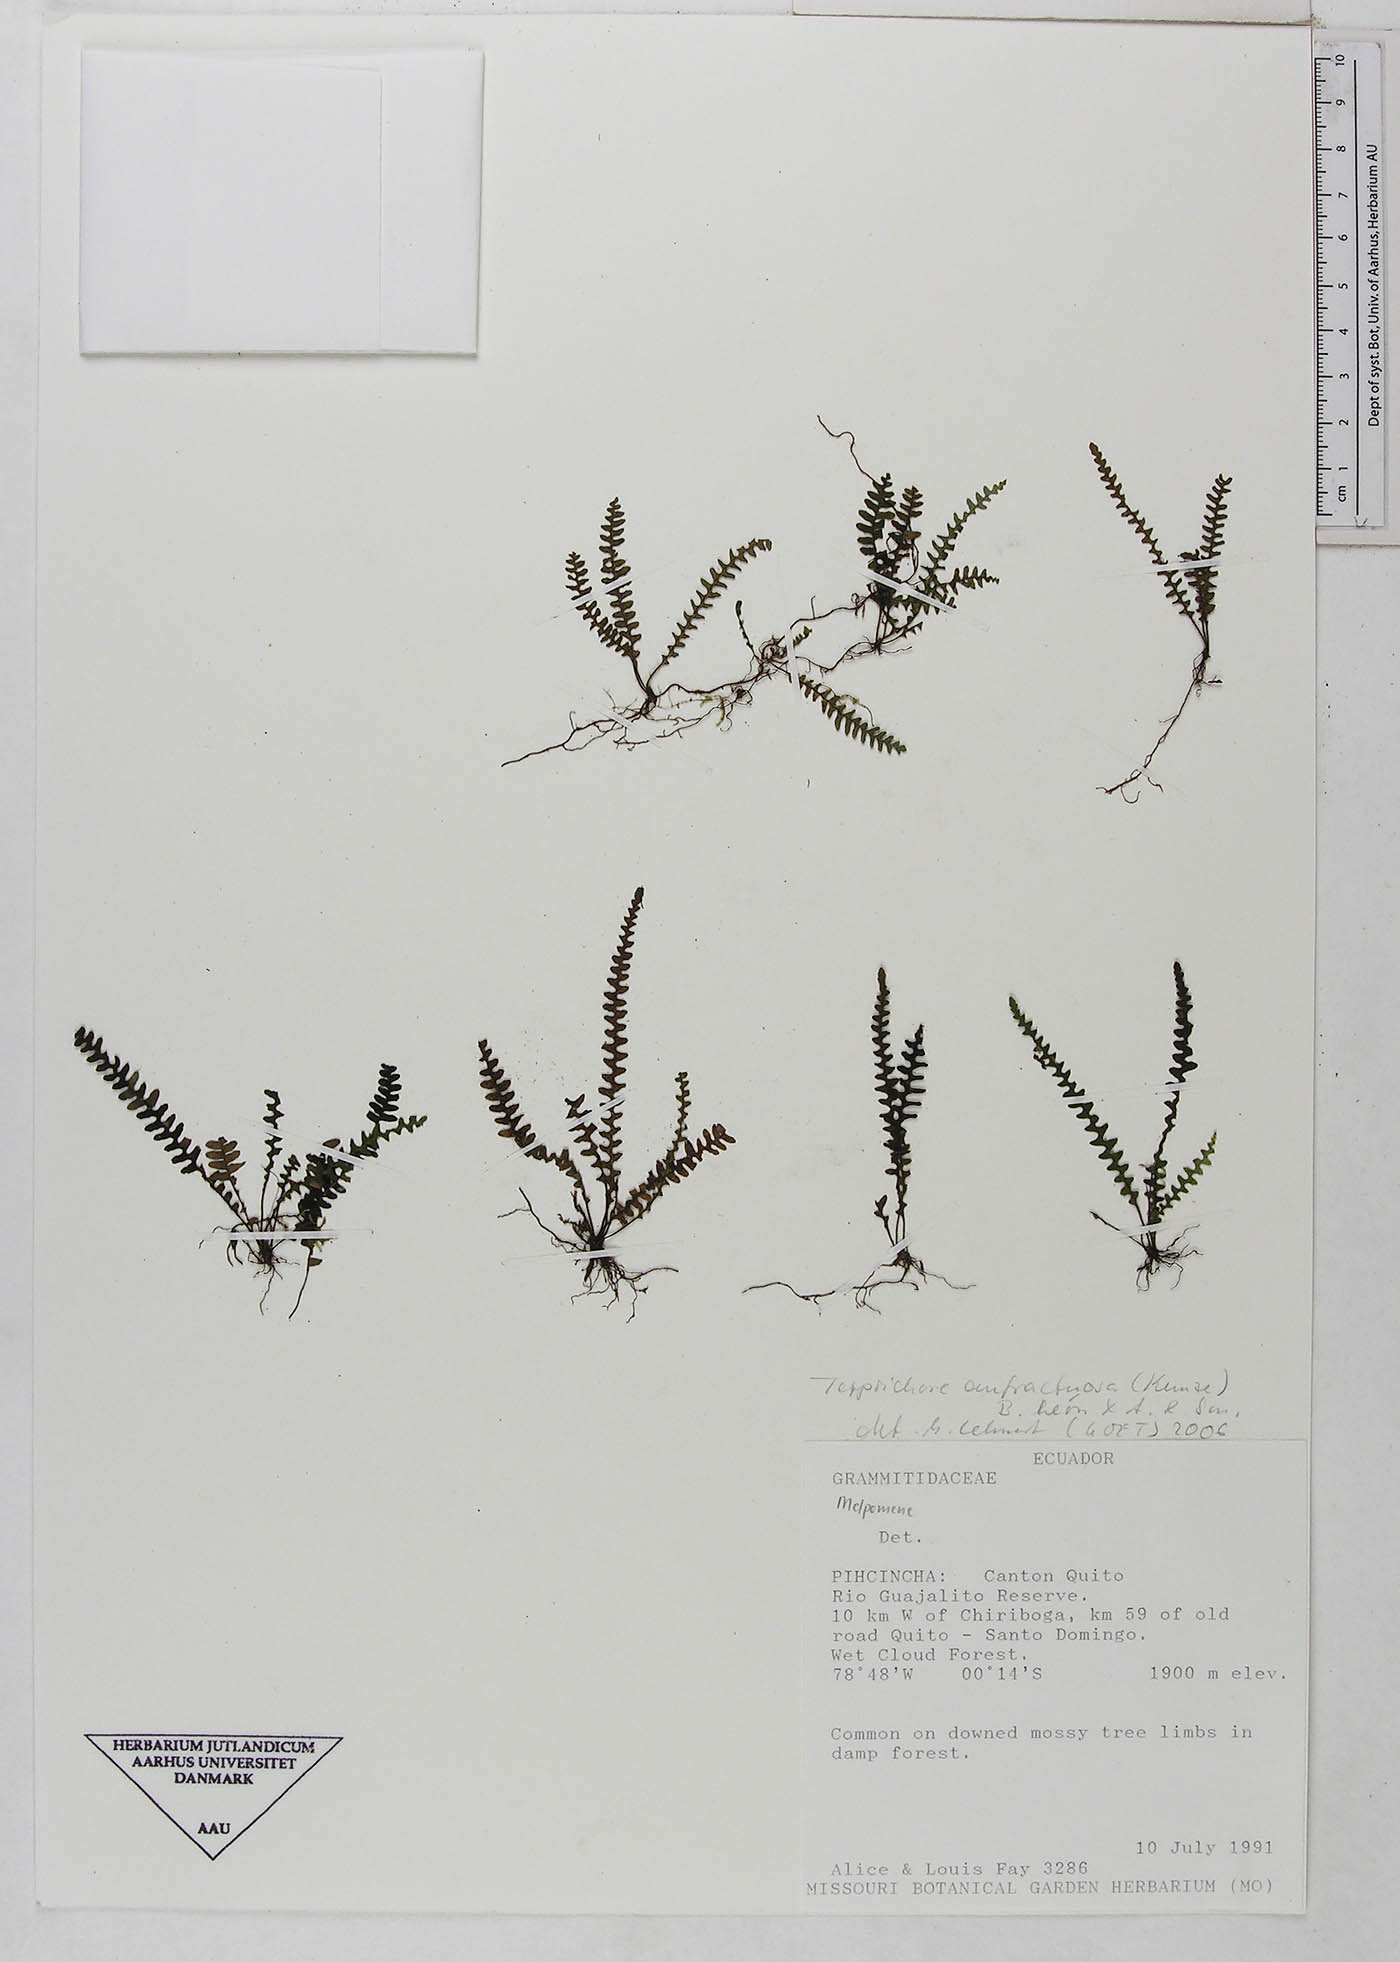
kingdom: Plantae
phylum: Tracheophyta
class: Polypodiopsida
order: Polypodiales
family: Polypodiaceae
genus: Ascogrammitis
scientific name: Ascogrammitis anfractuosa
